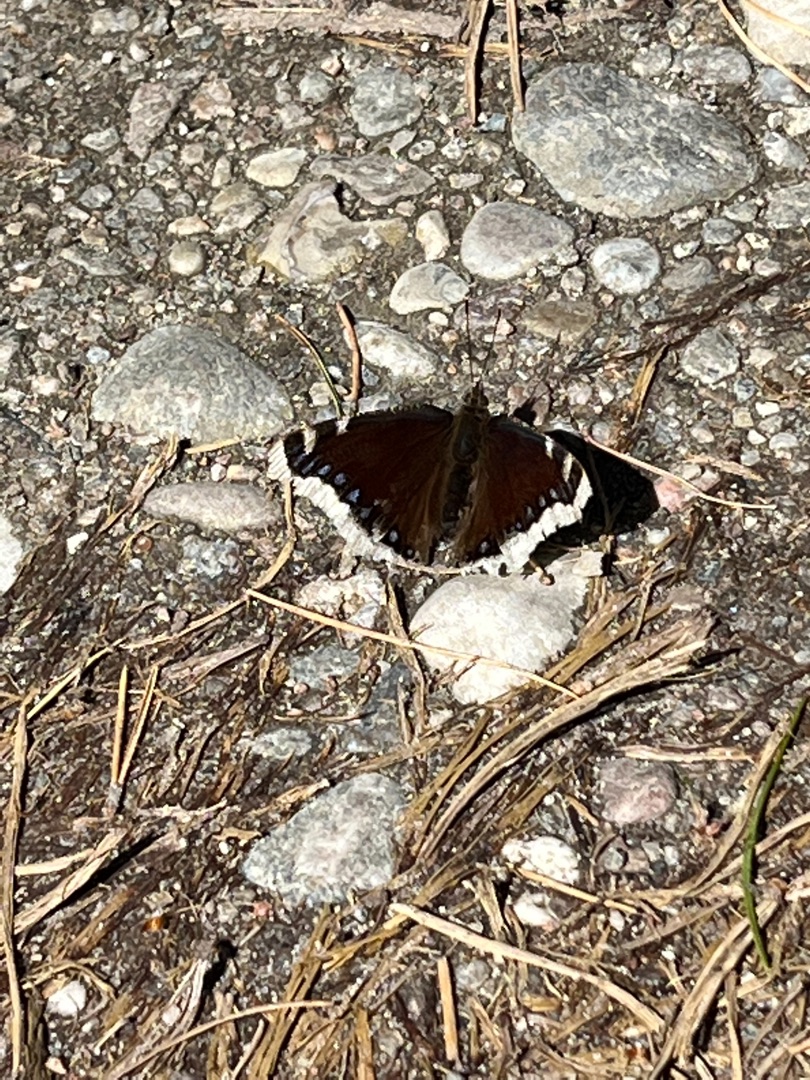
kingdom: Animalia
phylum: Arthropoda
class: Insecta
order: Lepidoptera
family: Nymphalidae
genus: Nymphalis
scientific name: Nymphalis antiopa
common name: Sørgekåbe
